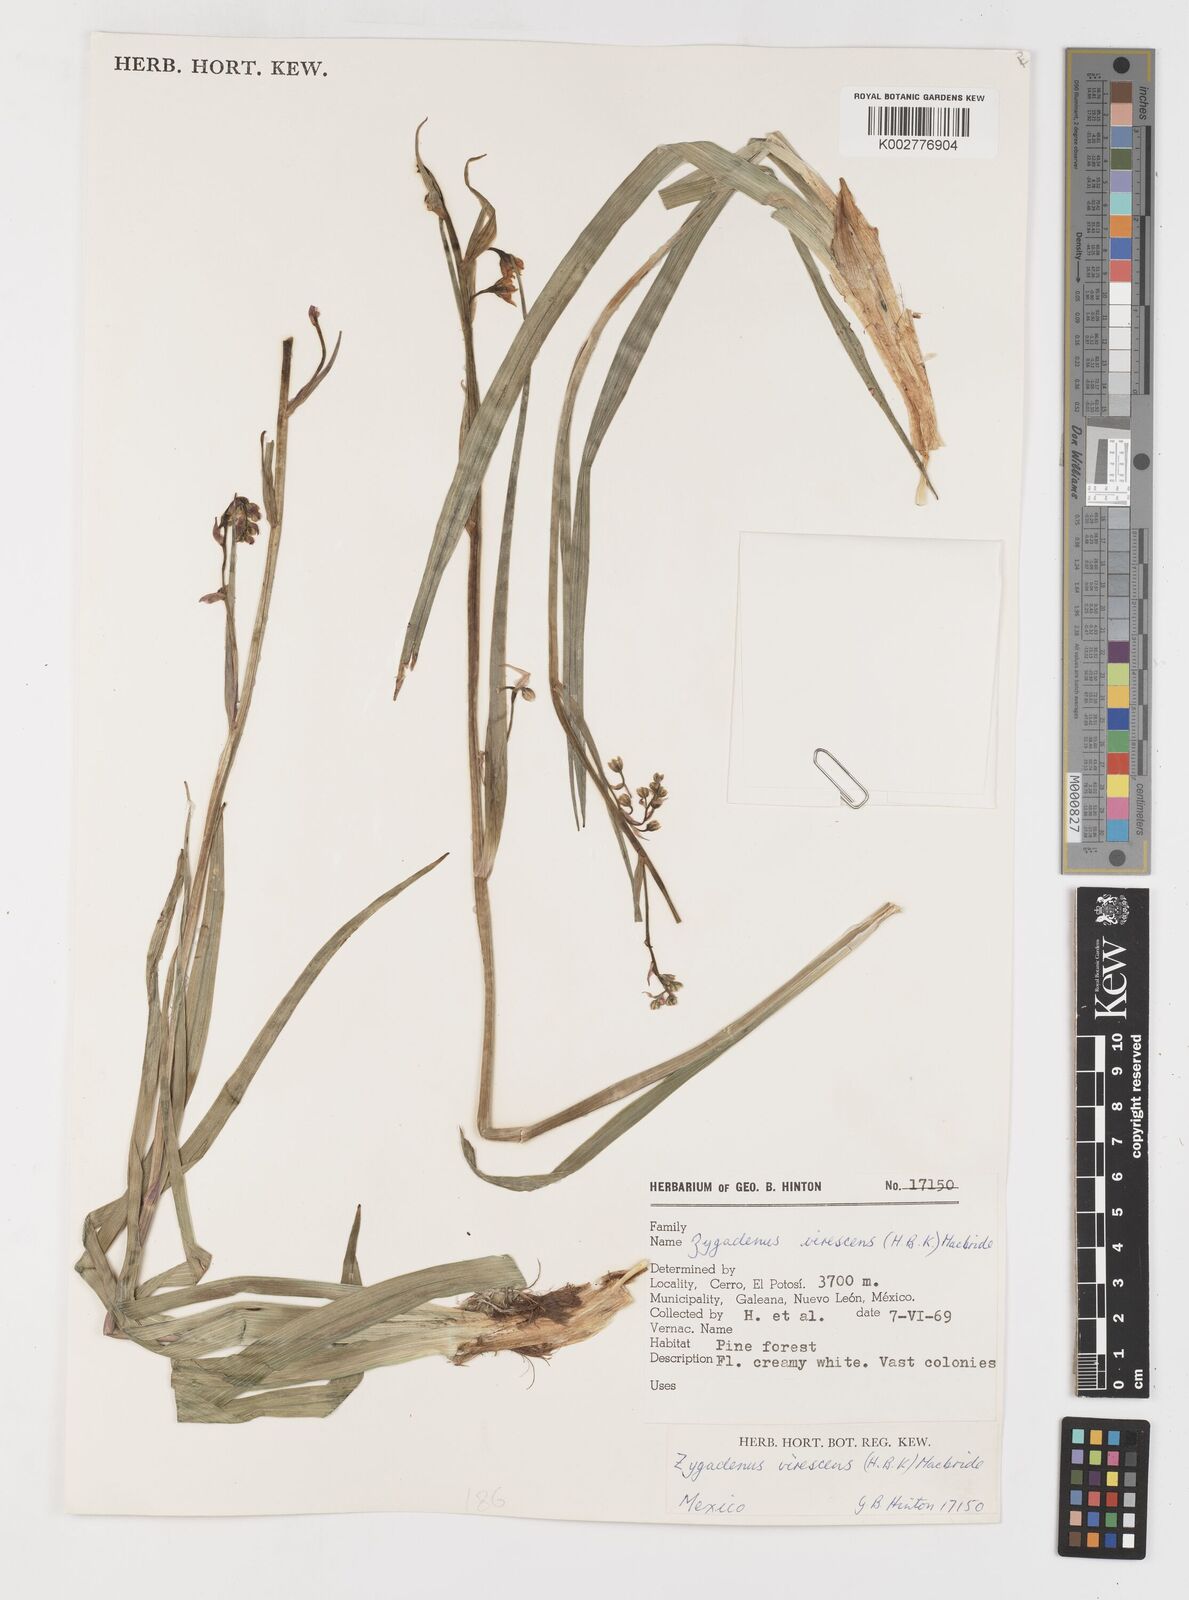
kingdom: Plantae
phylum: Tracheophyta
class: Liliopsida
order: Liliales
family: Melanthiaceae
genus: Anticlea
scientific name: Anticlea virescens
